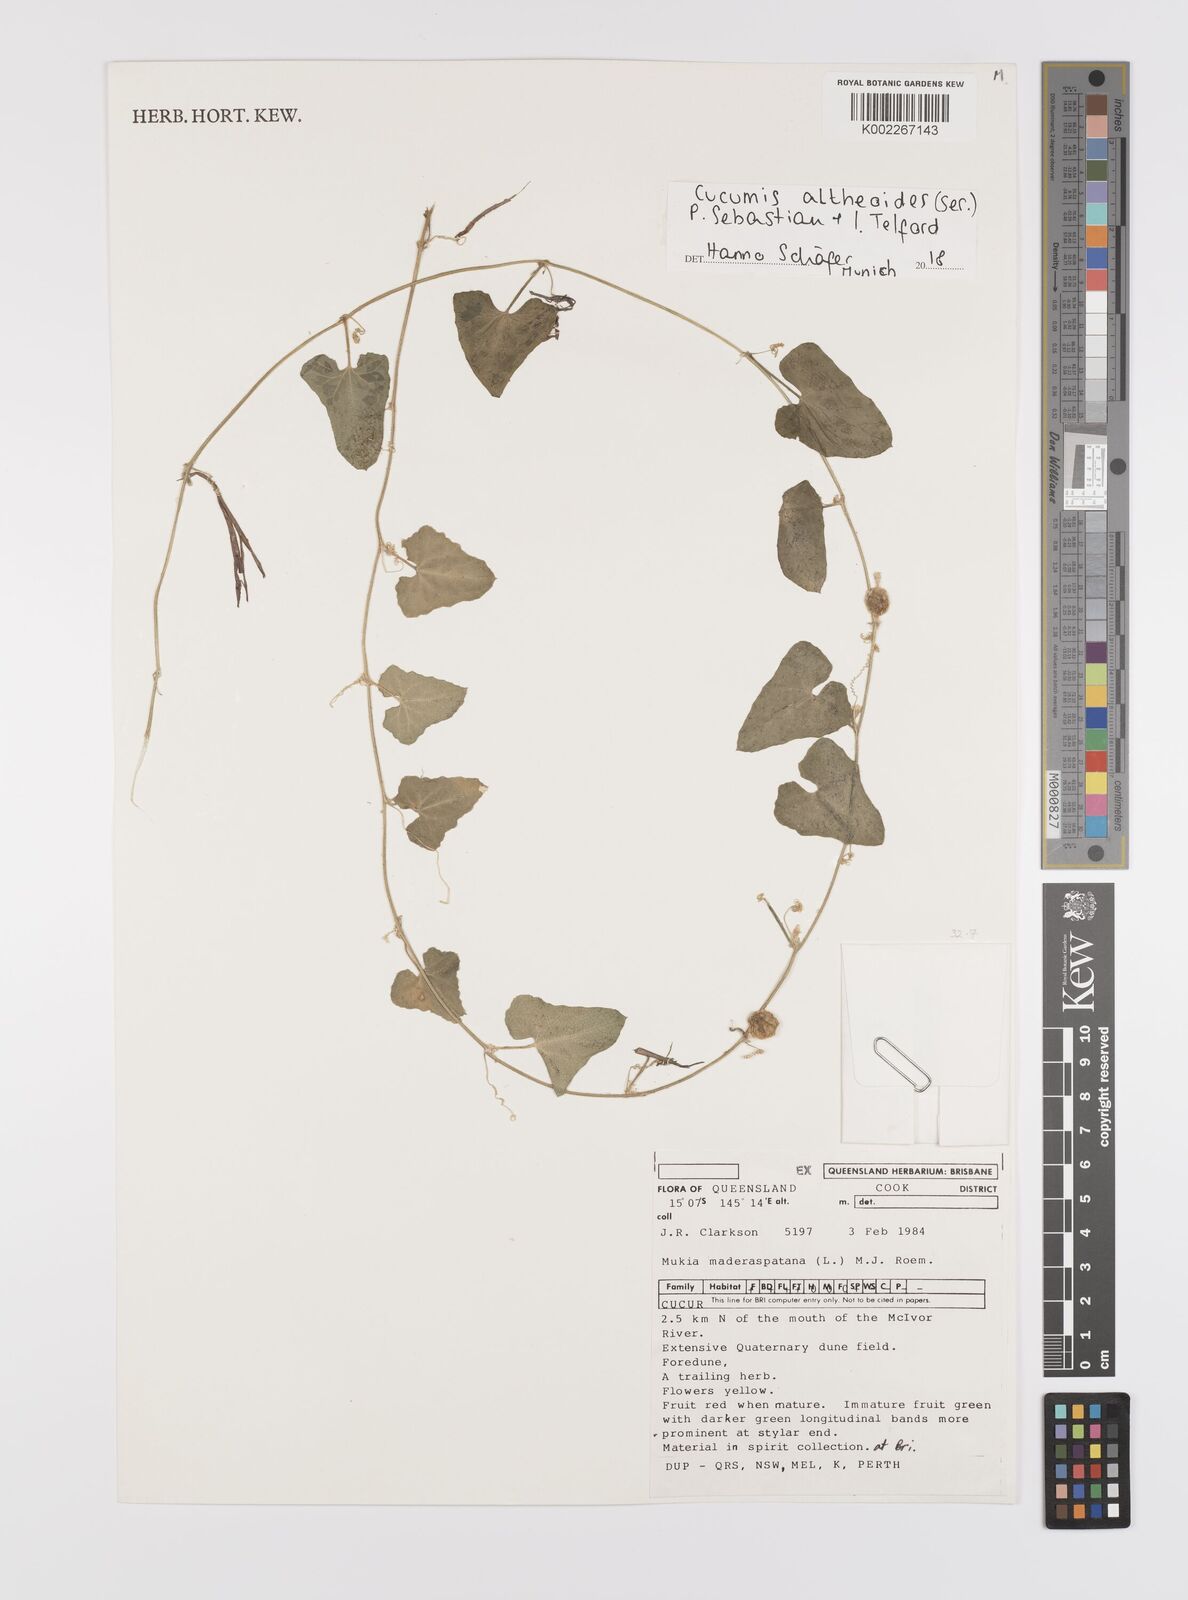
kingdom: Plantae
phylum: Tracheophyta
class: Magnoliopsida
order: Cucurbitales
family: Cucurbitaceae
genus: Cucumis
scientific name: Cucumis althaeoides
